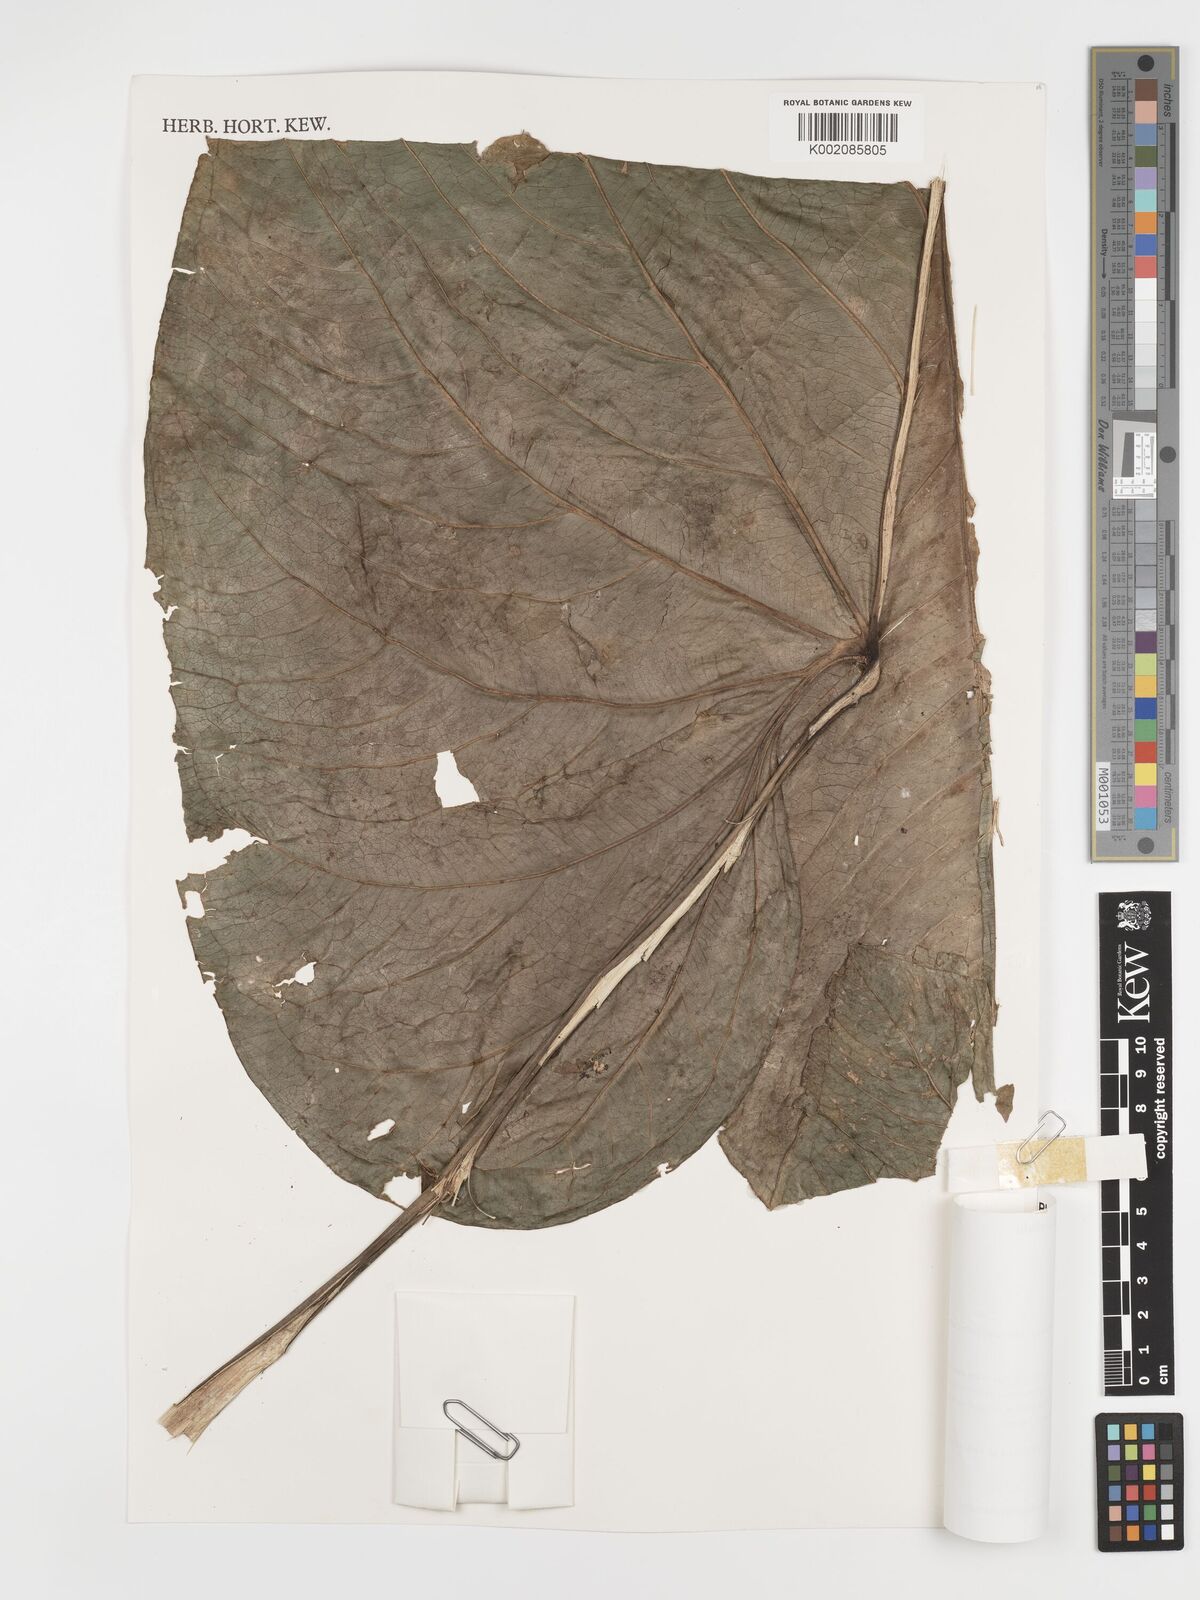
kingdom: Plantae
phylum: Tracheophyta
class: Liliopsida
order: Alismatales
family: Araceae
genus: Anthurium
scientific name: Anthurium coripatense
